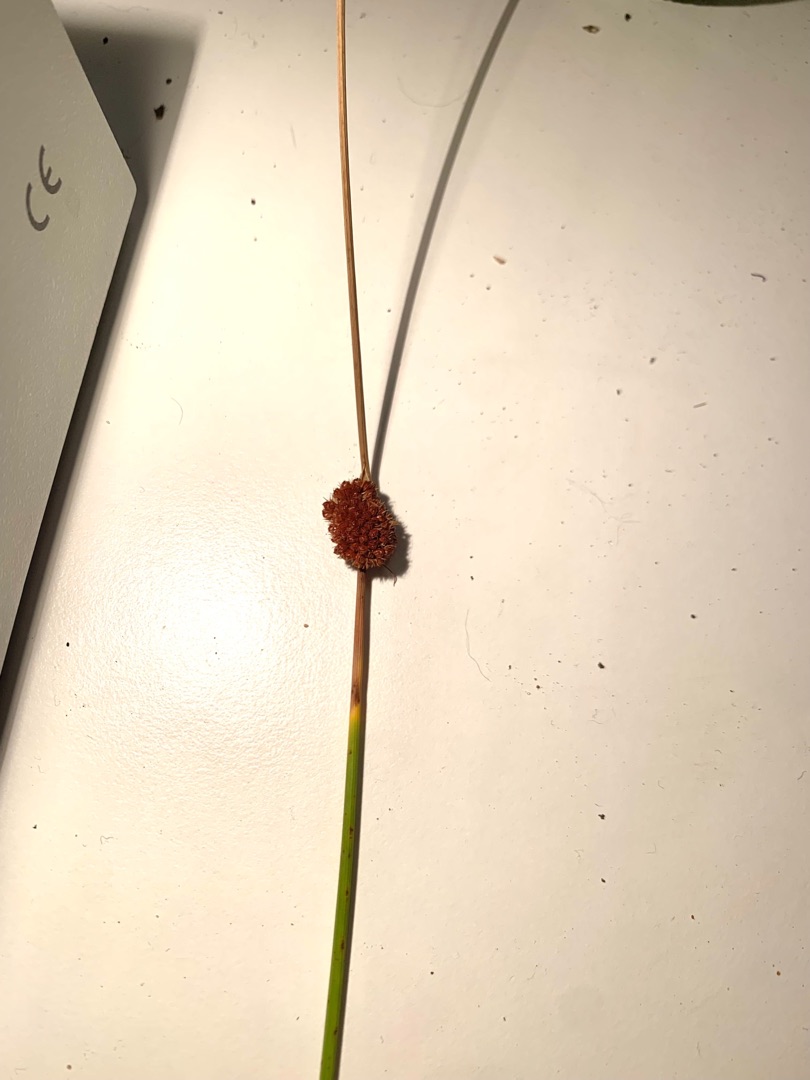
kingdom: Plantae
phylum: Tracheophyta
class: Liliopsida
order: Poales
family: Juncaceae
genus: Juncus
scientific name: Juncus conglomeratus
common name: Knop-siv
